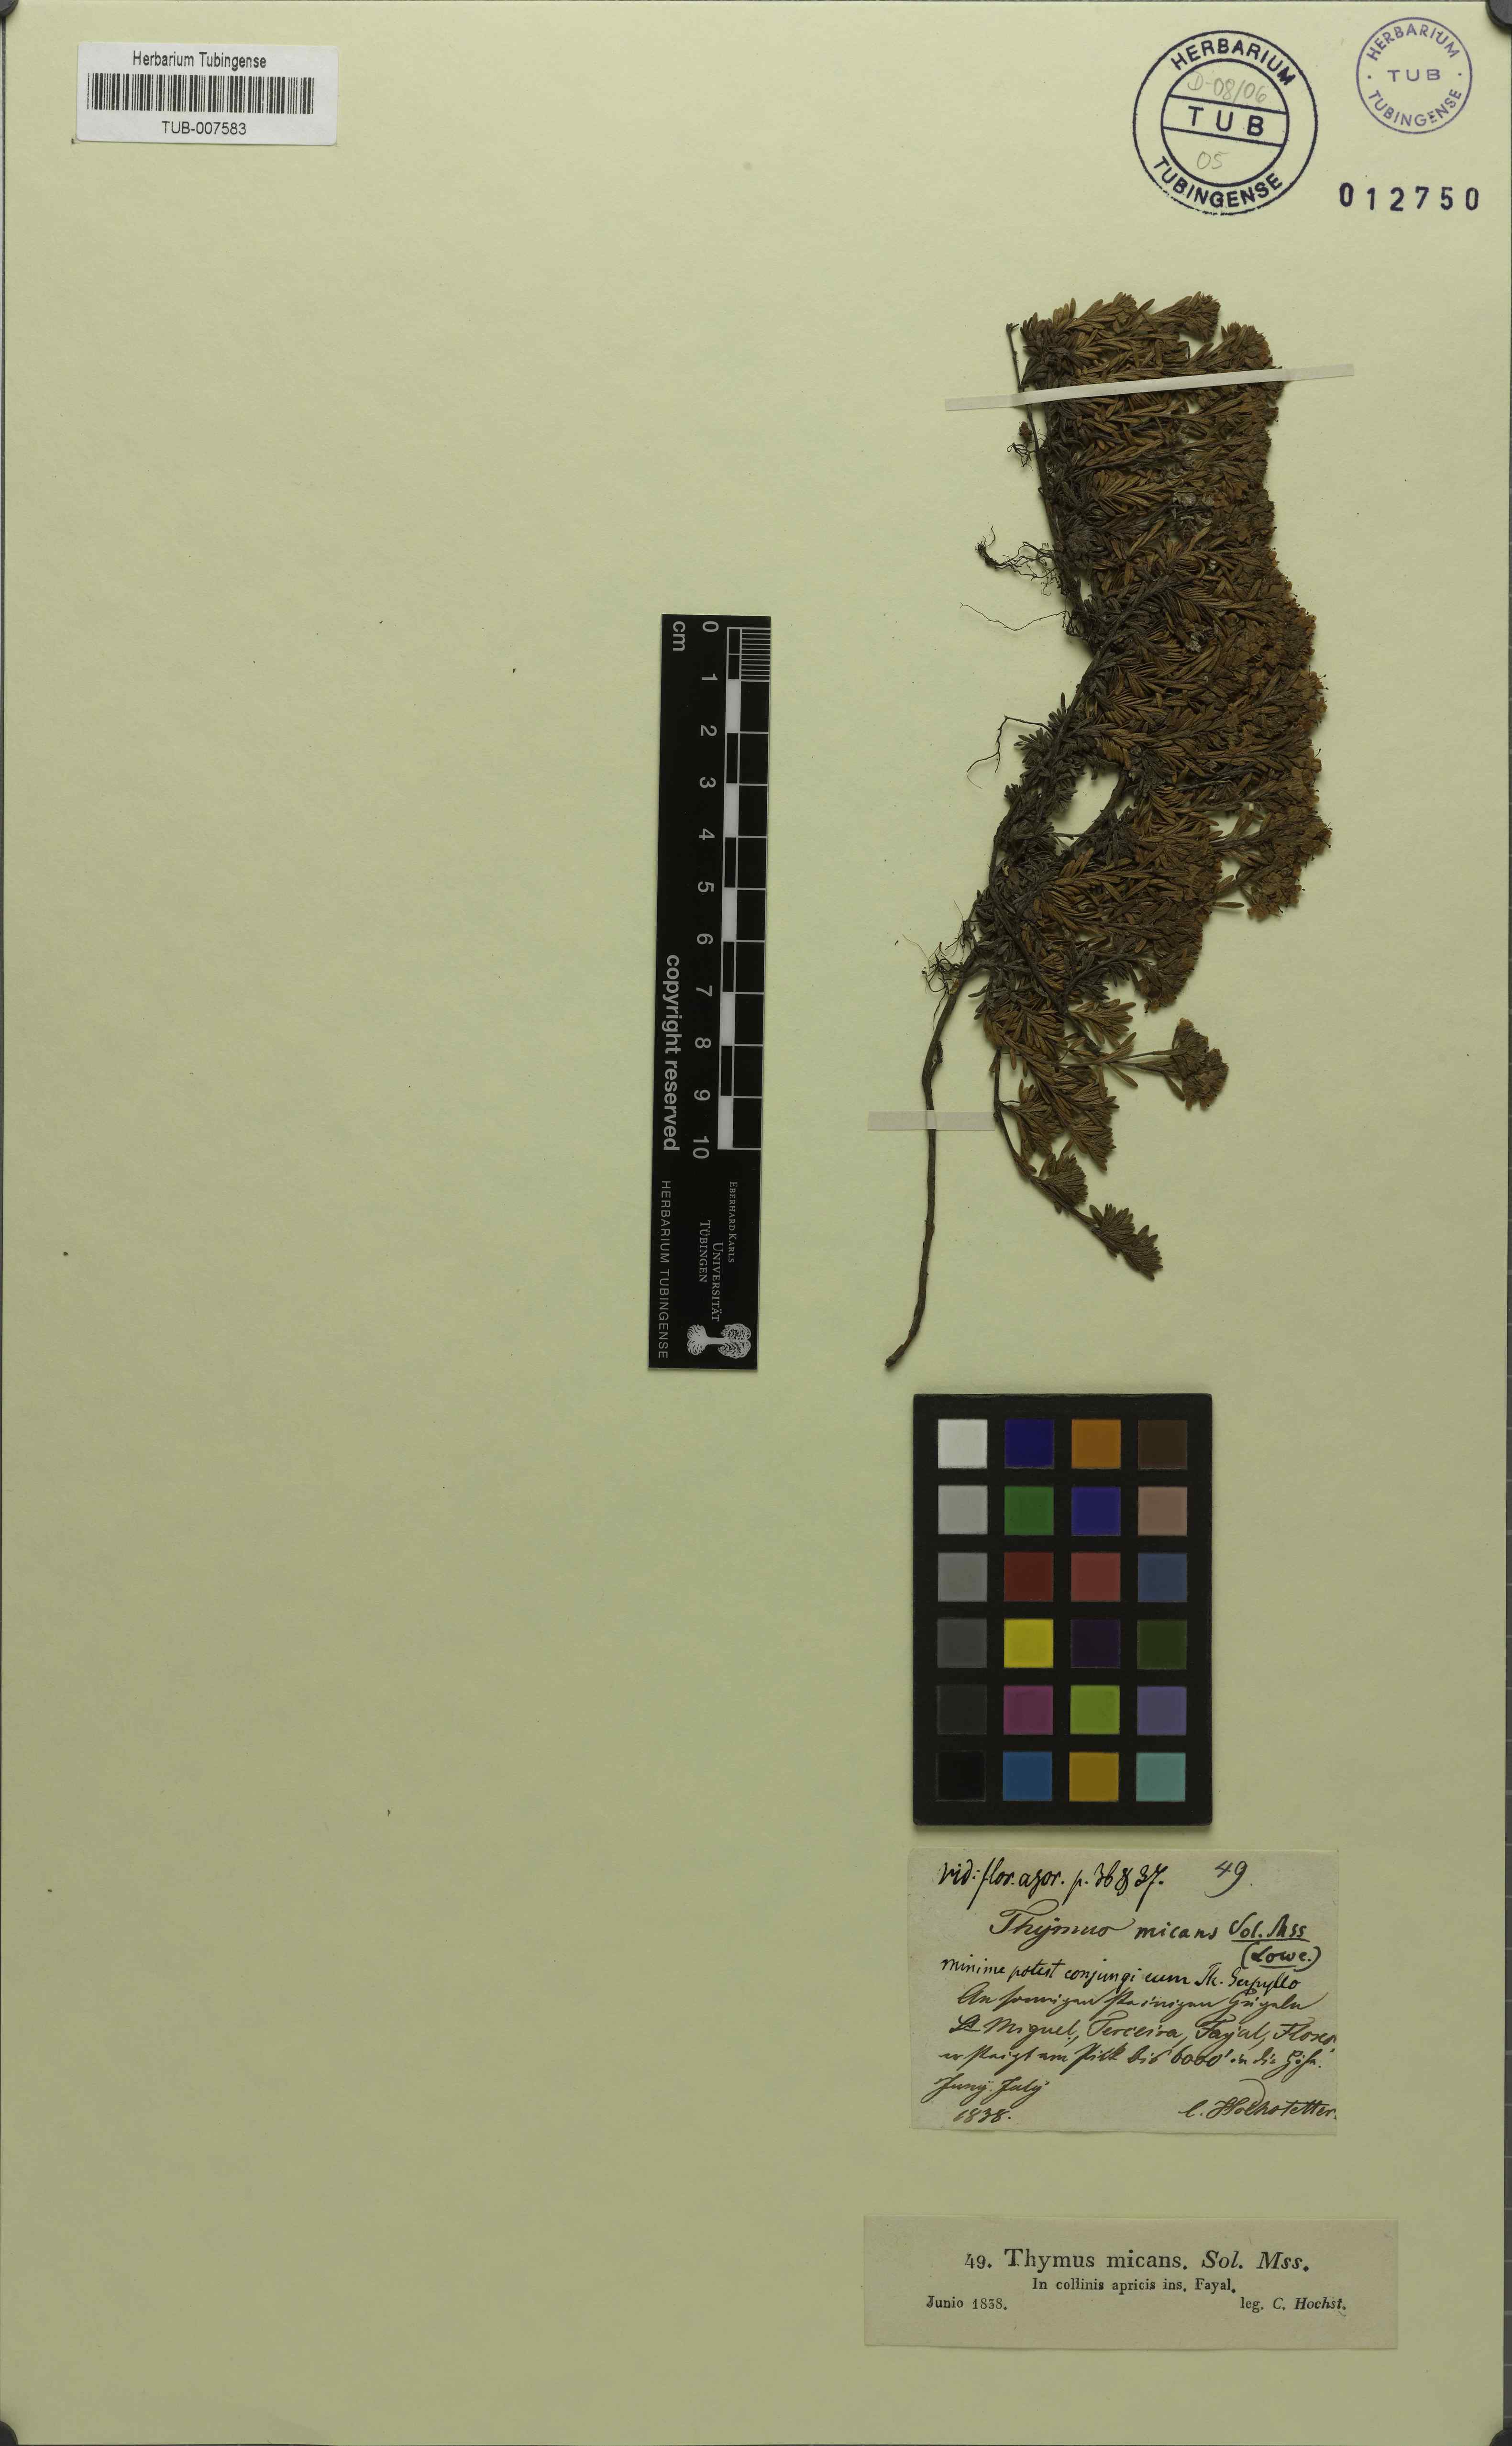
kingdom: Plantae
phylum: Tracheophyta
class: Magnoliopsida
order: Lamiales
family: Lamiaceae
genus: Thymus
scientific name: Thymus caespititius
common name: Azores thyme
